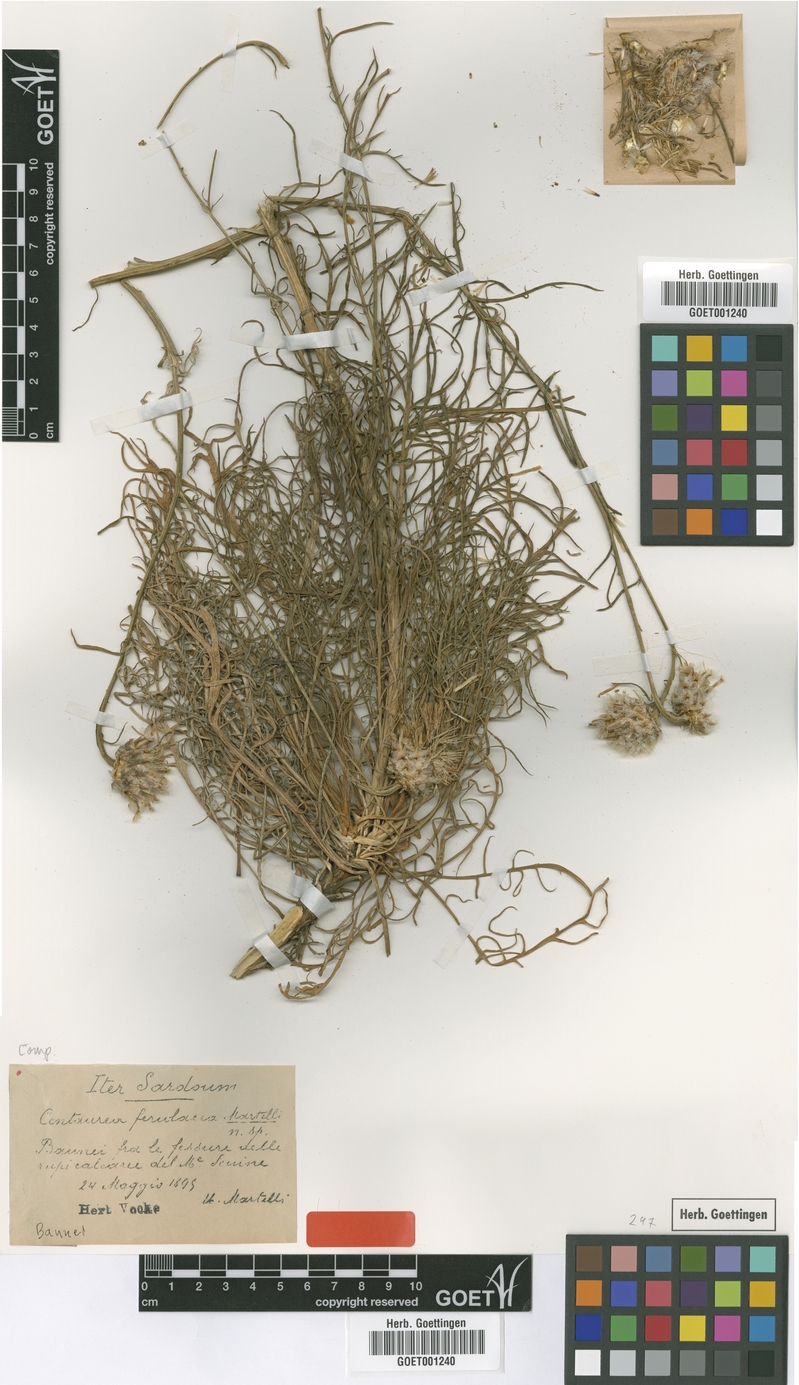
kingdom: Plantae
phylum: Tracheophyta
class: Magnoliopsida
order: Asterales
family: Asteraceae
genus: Centaurea
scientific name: Centaurea filiformis
